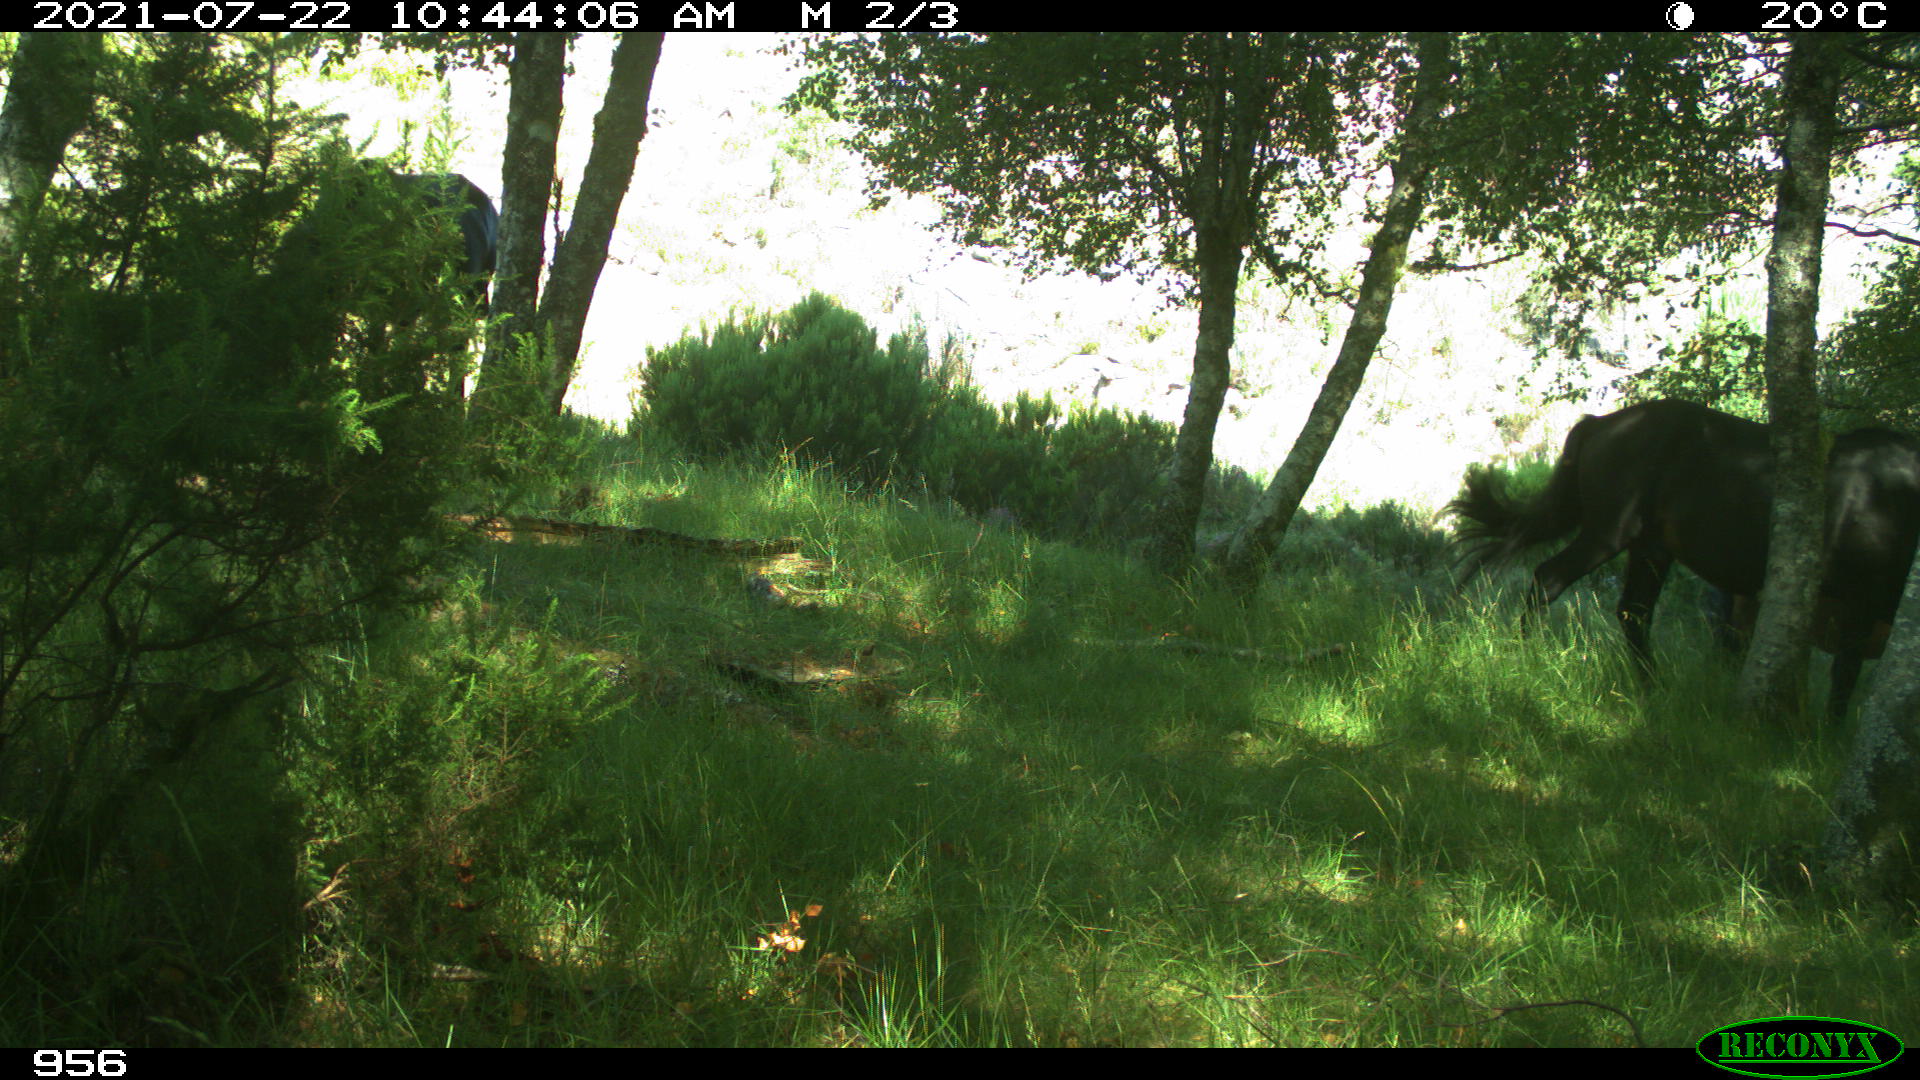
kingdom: Animalia
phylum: Chordata
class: Mammalia
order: Perissodactyla
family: Equidae
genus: Equus
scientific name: Equus caballus
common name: Horse
